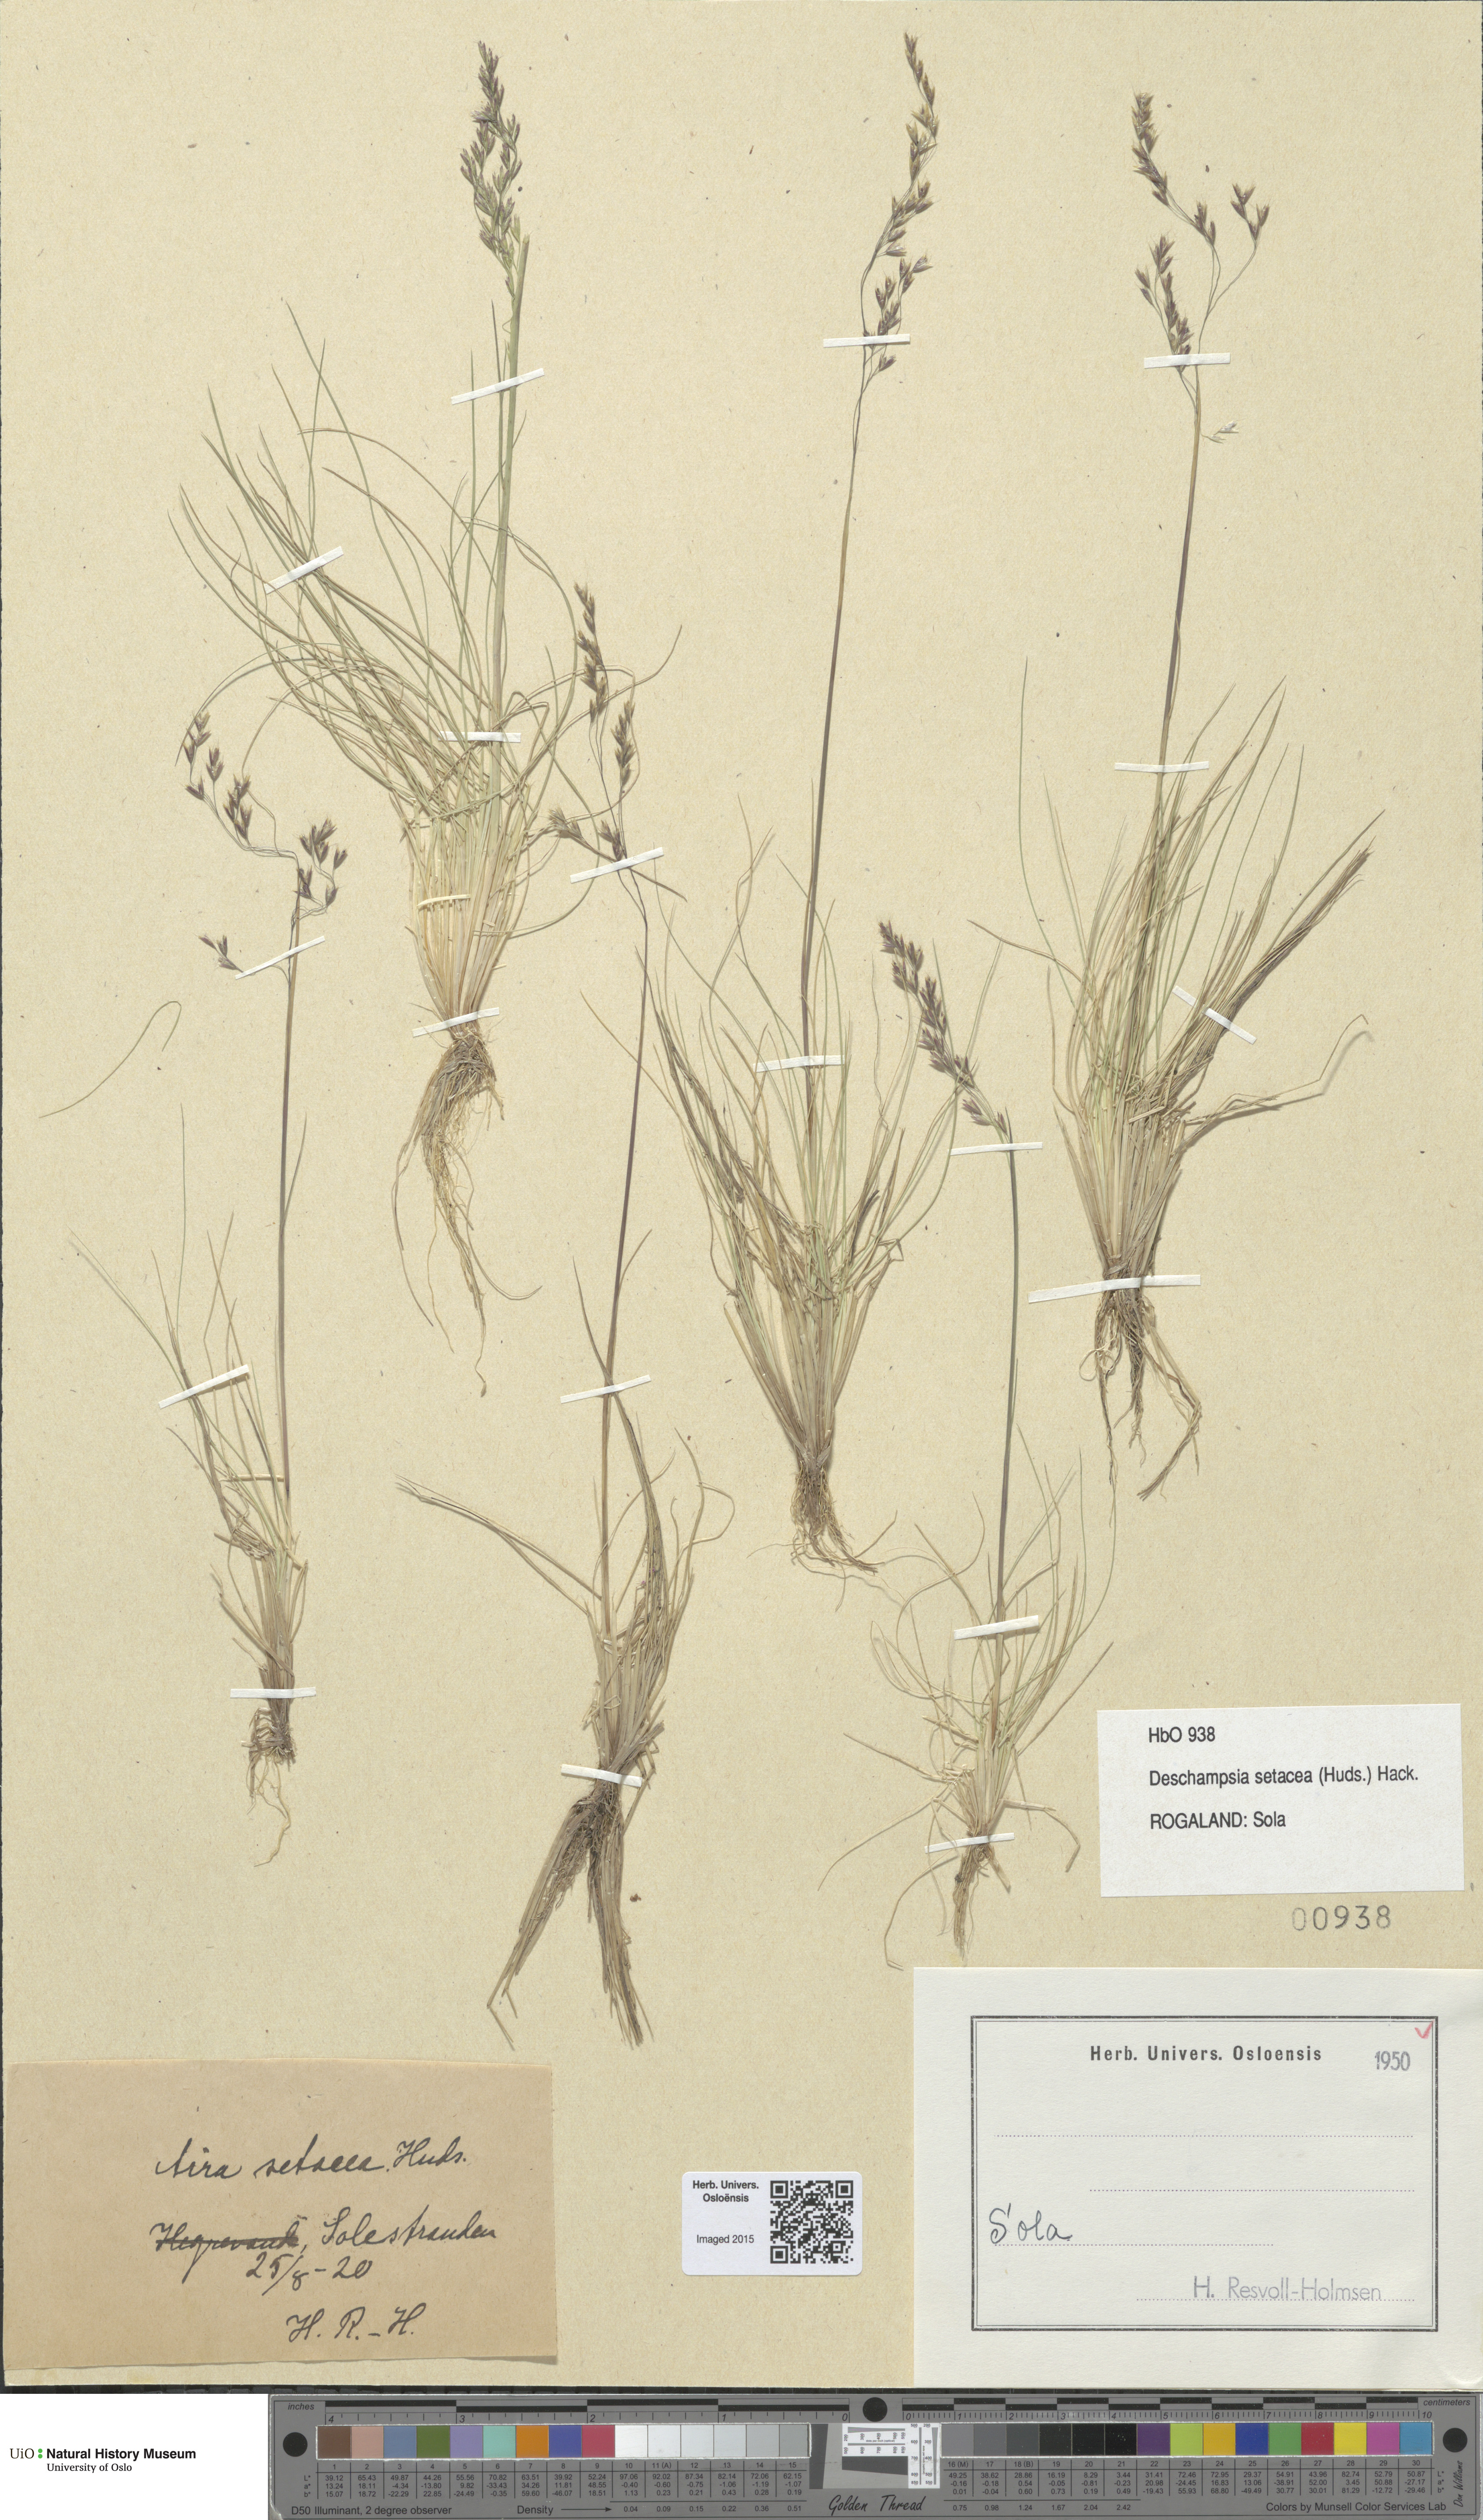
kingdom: Plantae
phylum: Tracheophyta
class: Liliopsida
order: Poales
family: Poaceae
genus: Deschampsia
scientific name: Deschampsia setacea
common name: Bog hair-grass
